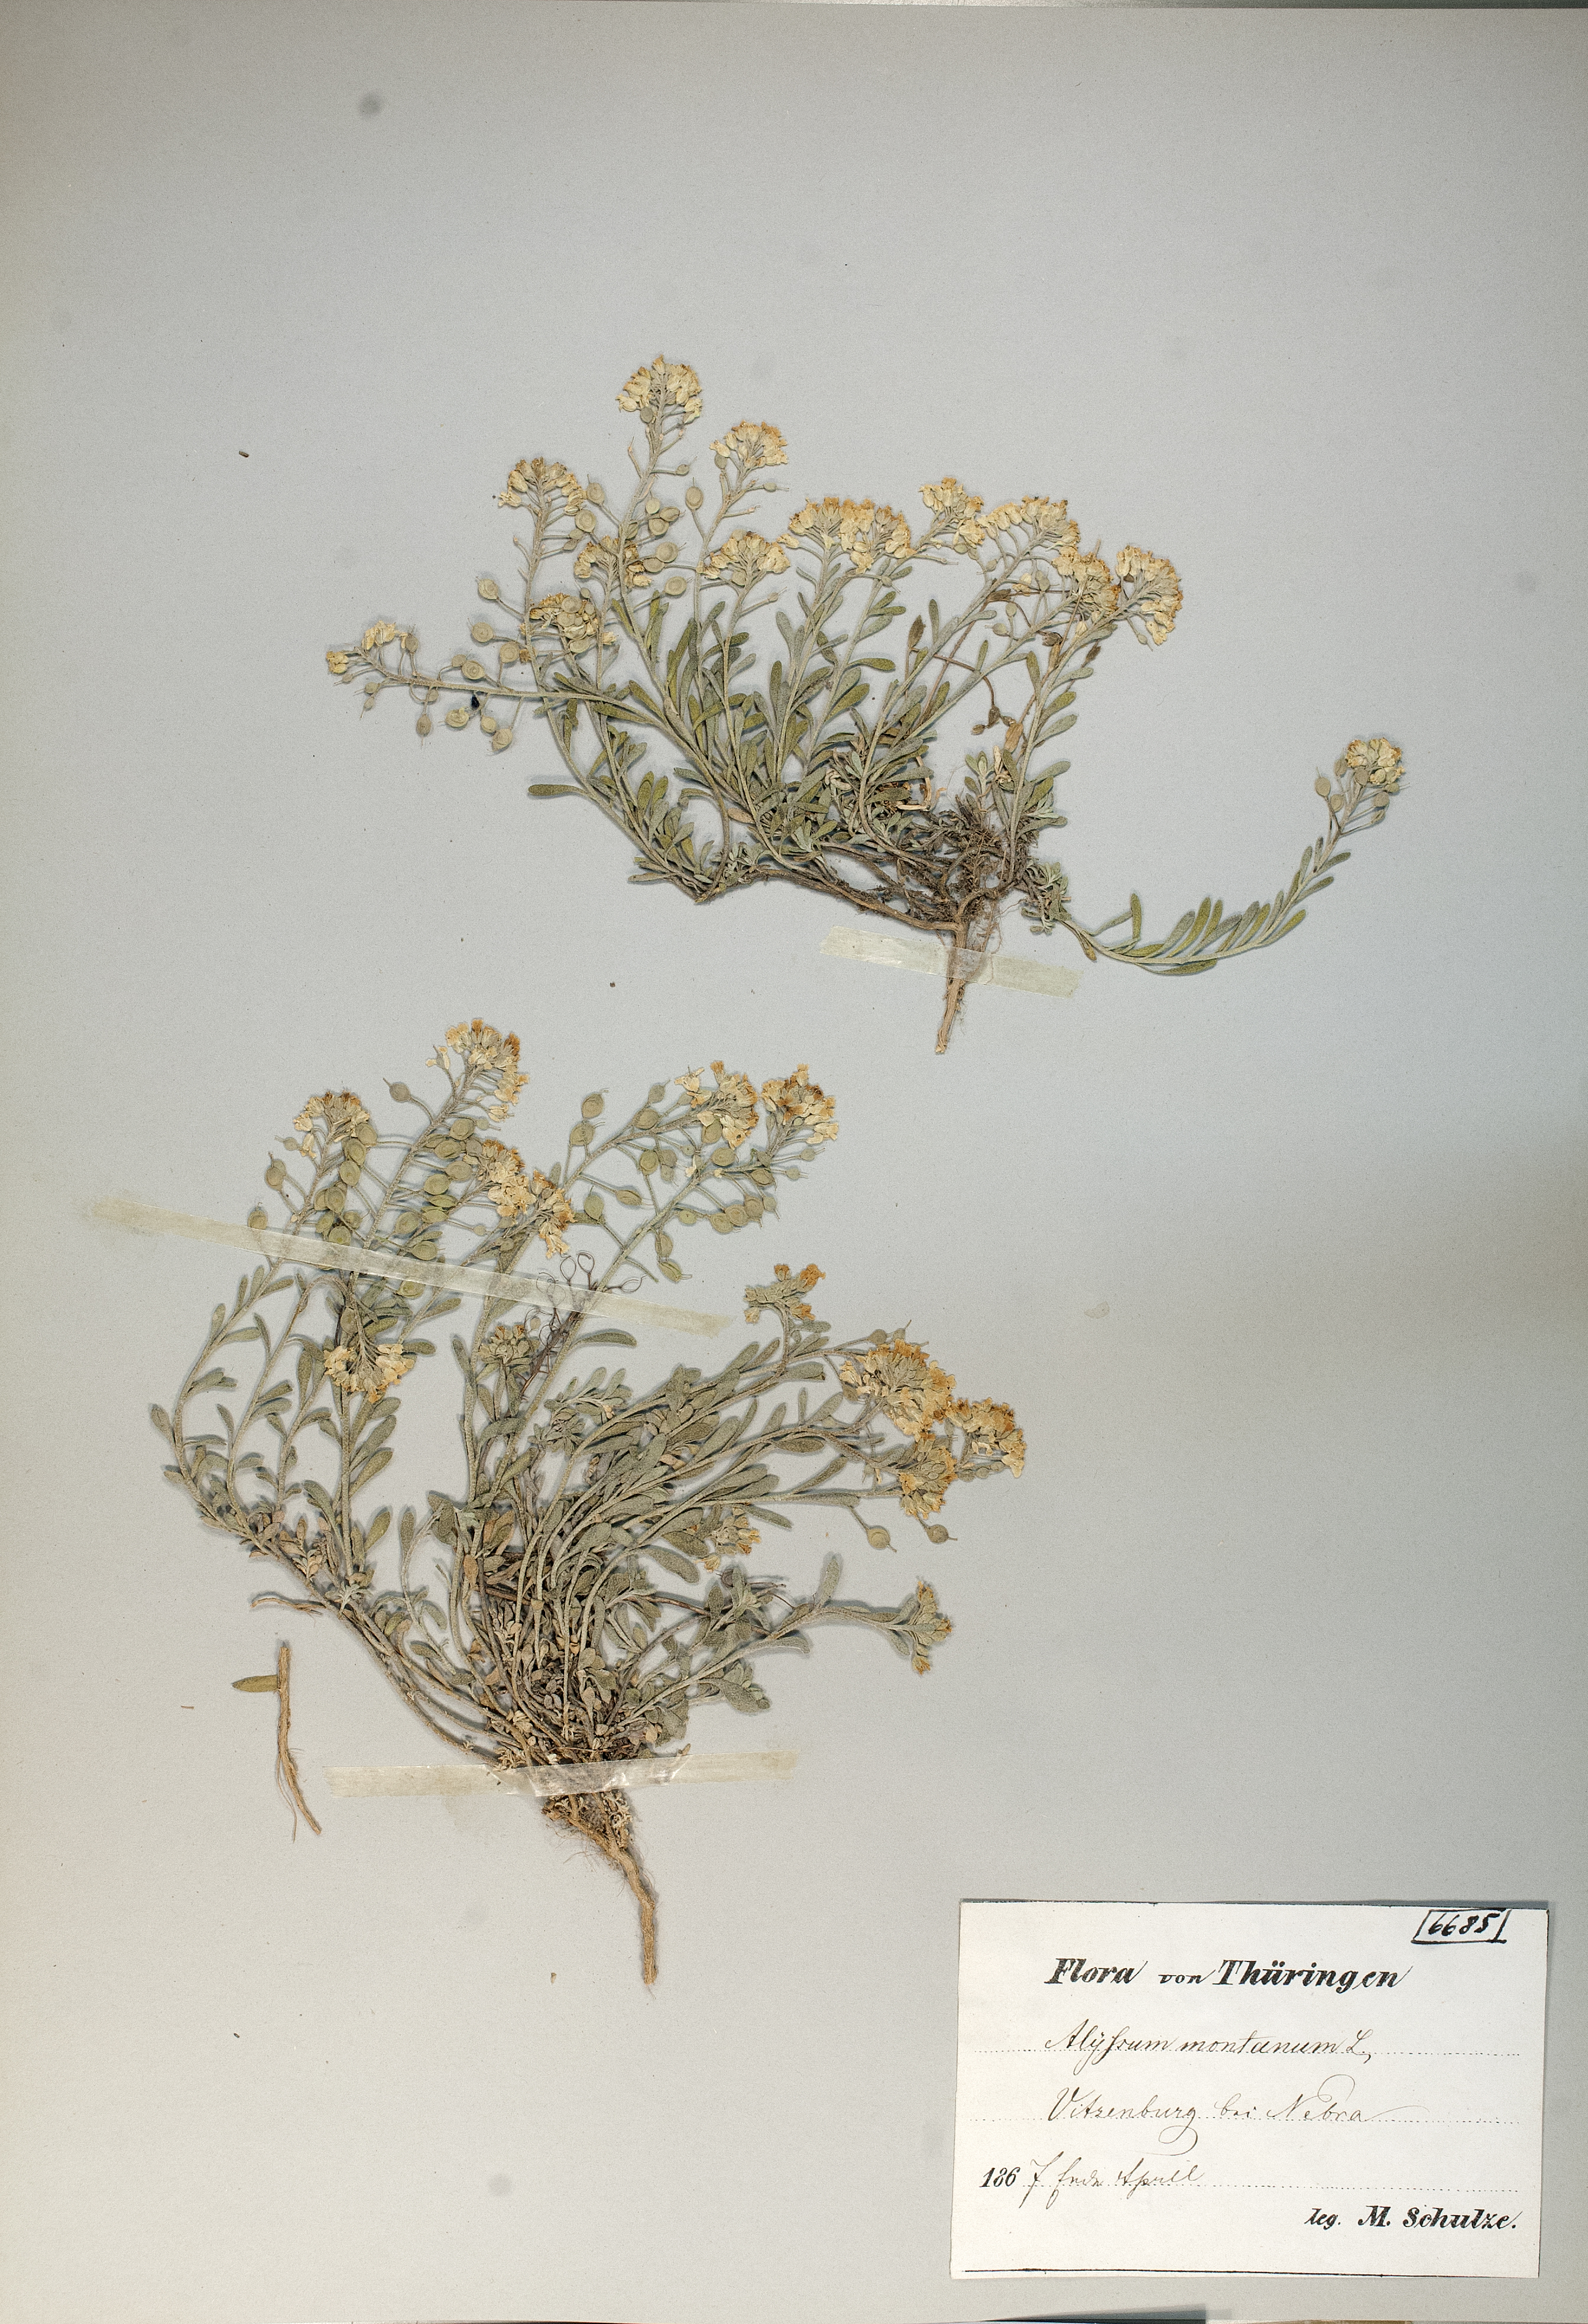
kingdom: Plantae
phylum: Tracheophyta
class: Magnoliopsida
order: Brassicales
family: Brassicaceae
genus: Alyssum
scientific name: Alyssum montanum
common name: Mountain alison
